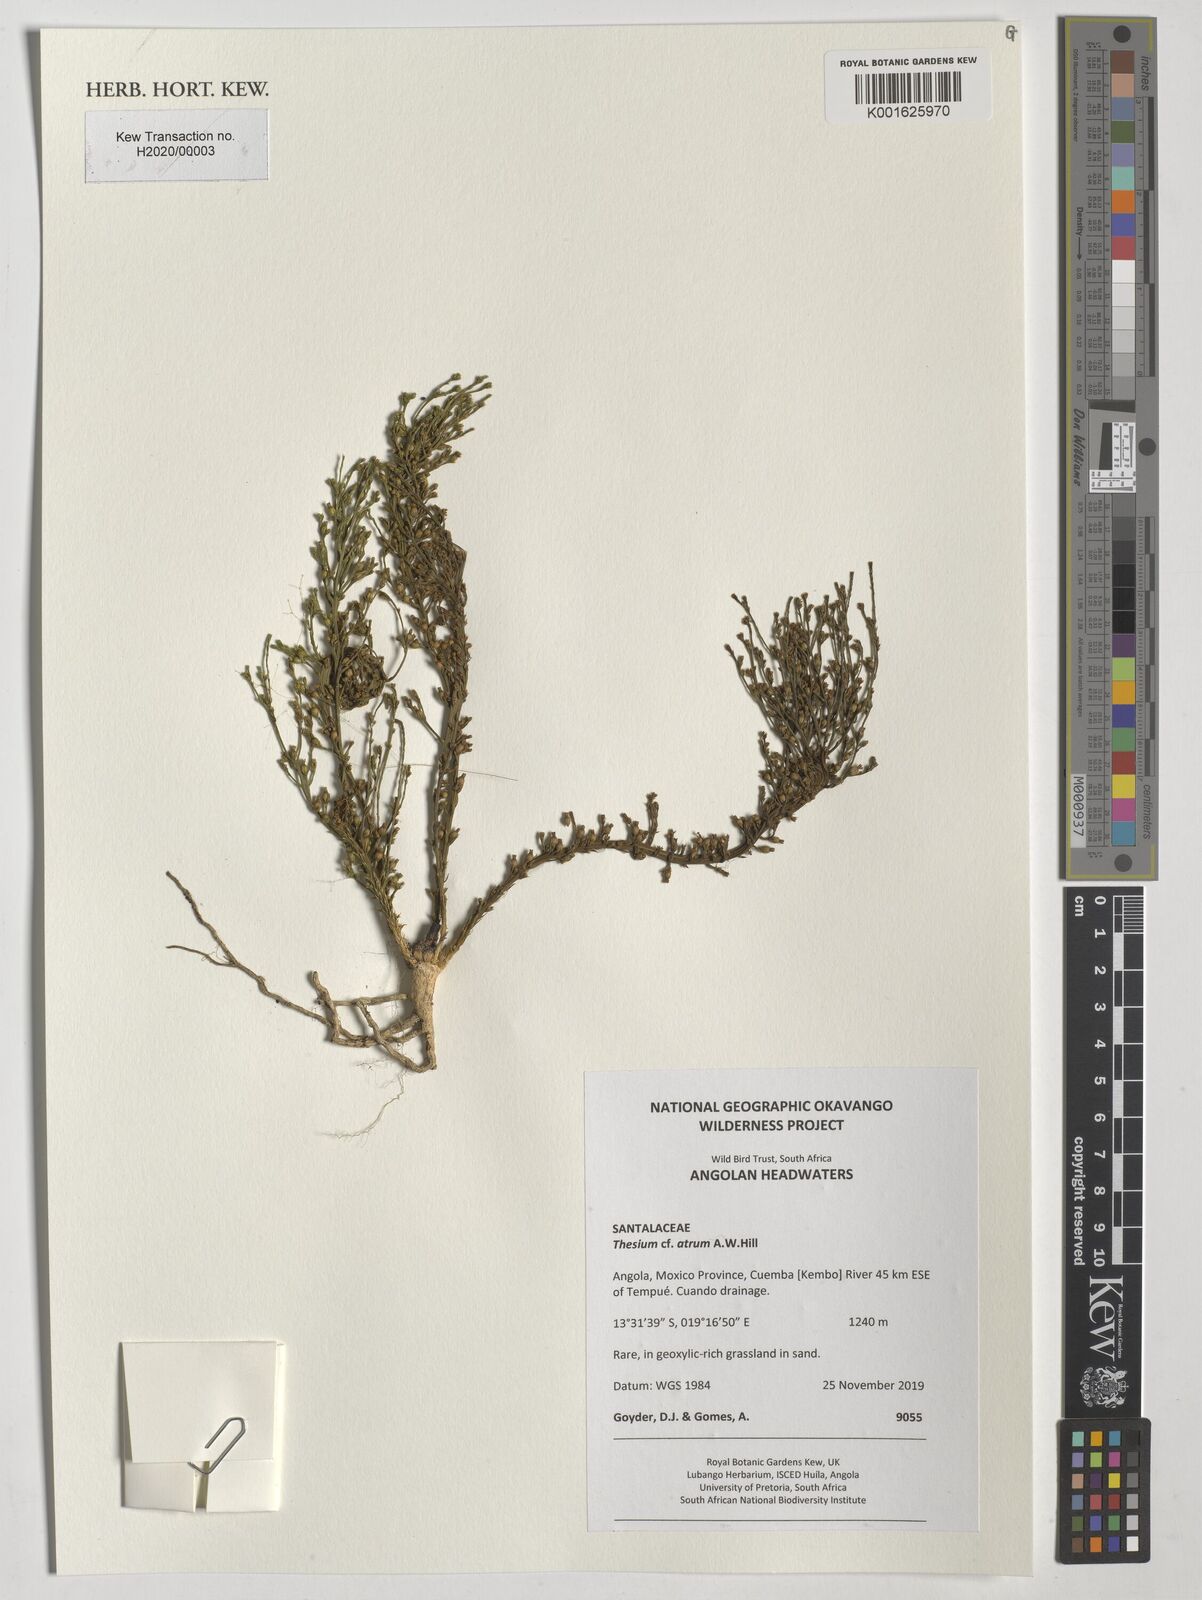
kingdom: Plantae
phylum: Tracheophyta
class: Magnoliopsida
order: Santalales
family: Thesiaceae
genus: Thesium
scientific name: Thesium atrum
